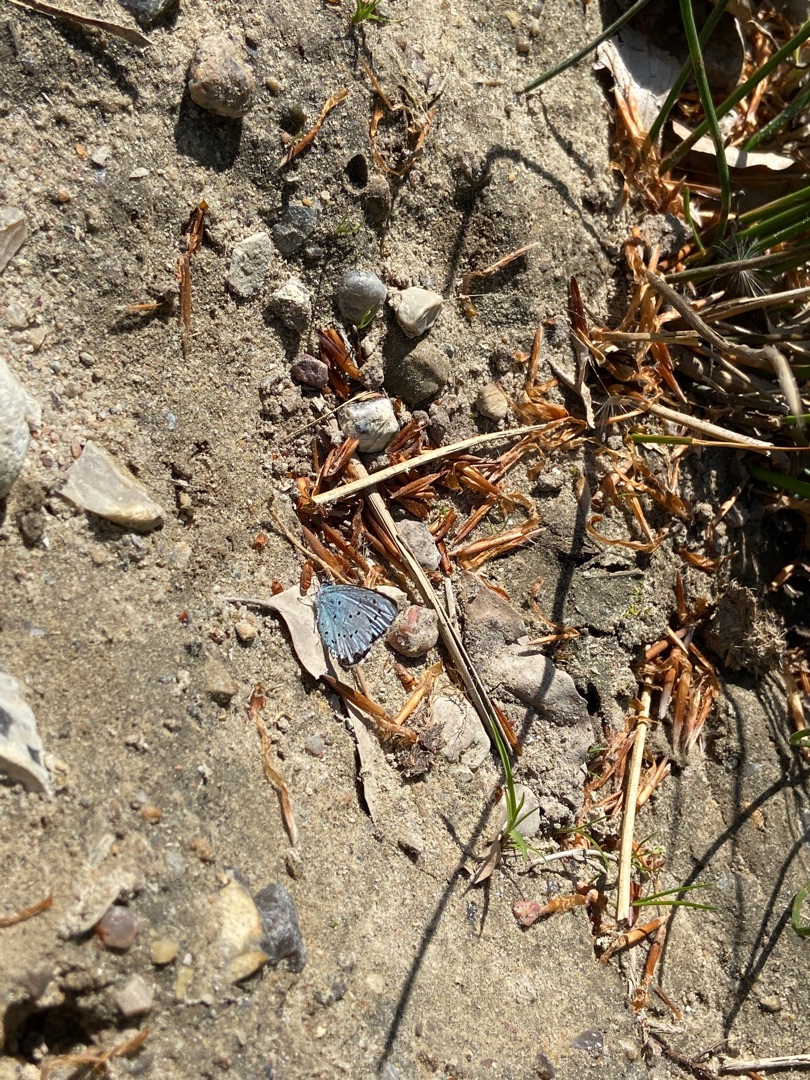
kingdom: Animalia
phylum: Arthropoda
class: Insecta
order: Lepidoptera
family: Lycaenidae
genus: Celastrina
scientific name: Celastrina argiolus
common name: Skovblåfugl
